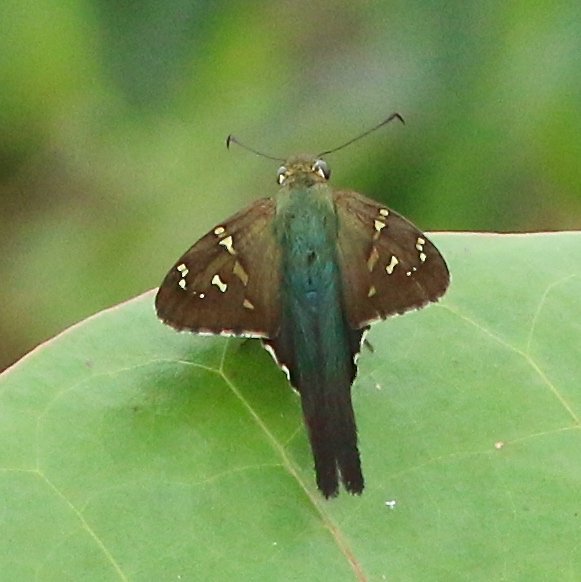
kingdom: Animalia
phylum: Arthropoda
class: Insecta
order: Lepidoptera
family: Hesperiidae
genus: Urbanus
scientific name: Urbanus proteus
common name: Long-tailed Skipper
